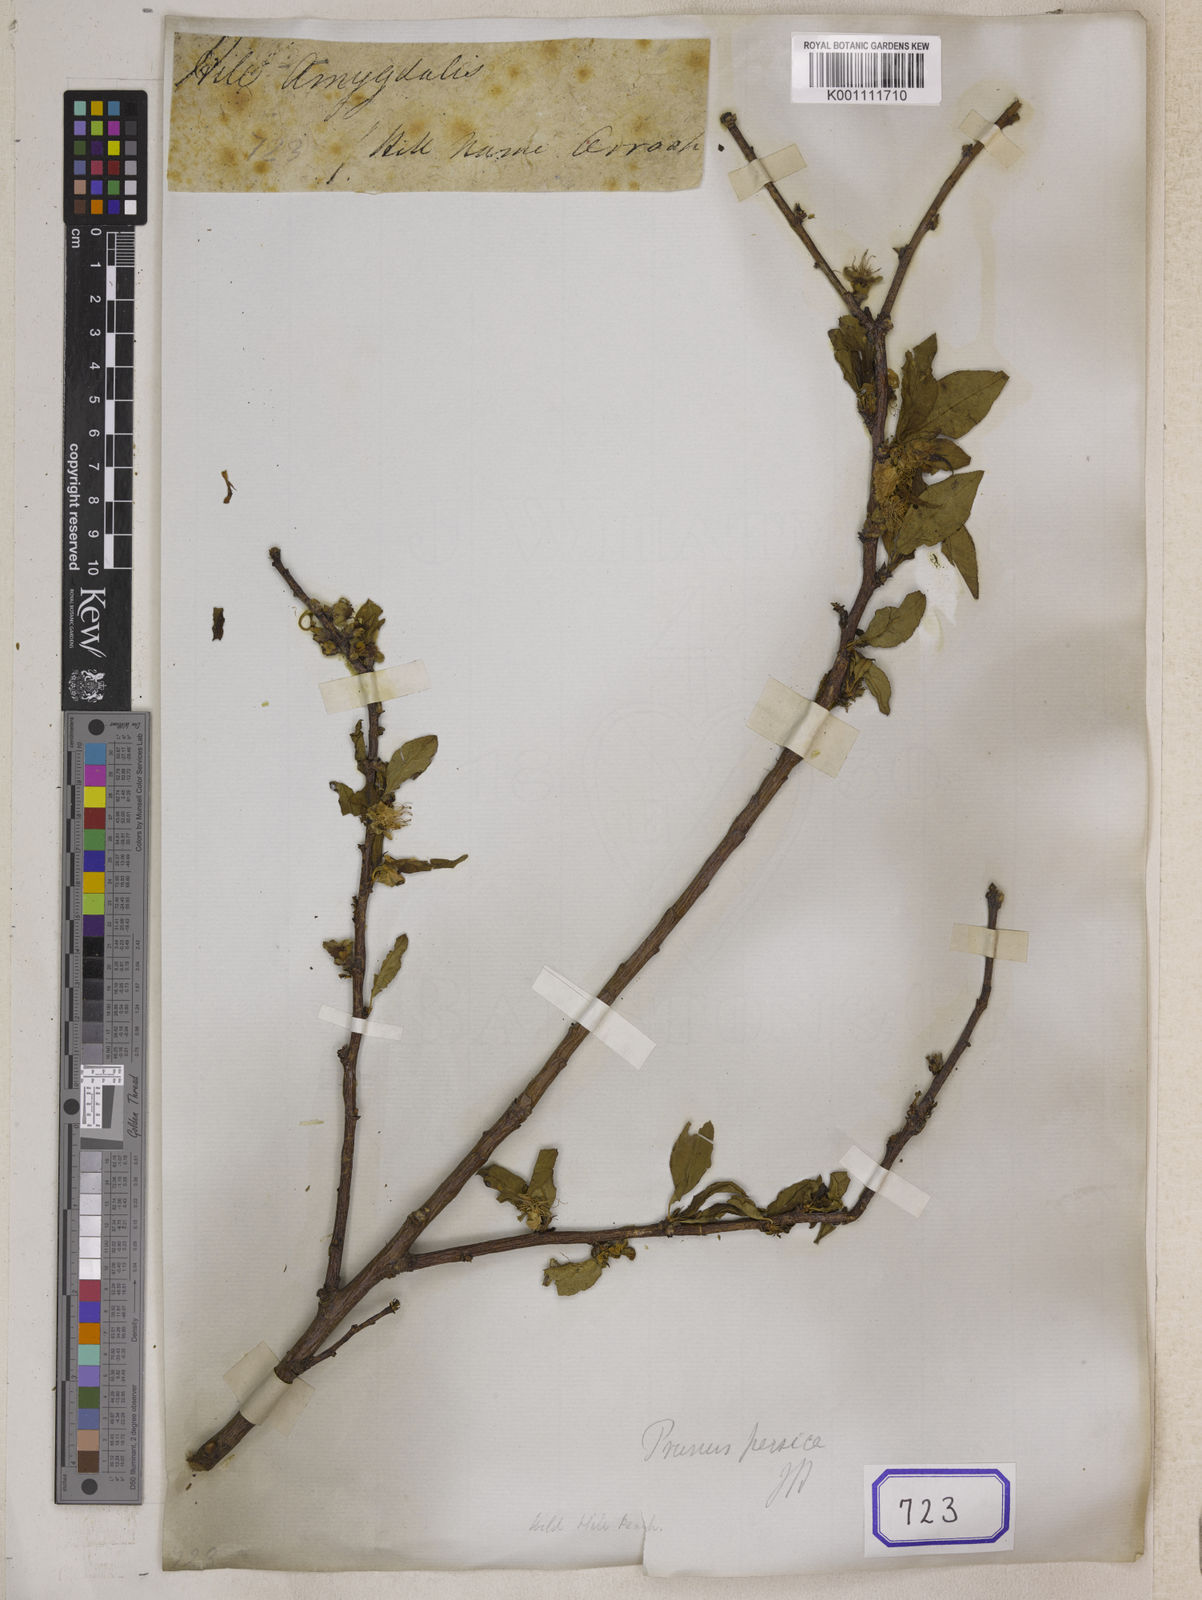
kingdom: Plantae
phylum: Tracheophyta
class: Magnoliopsida
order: Rosales
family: Rosaceae
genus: Prunus
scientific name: Prunus Amygdalus collinus
